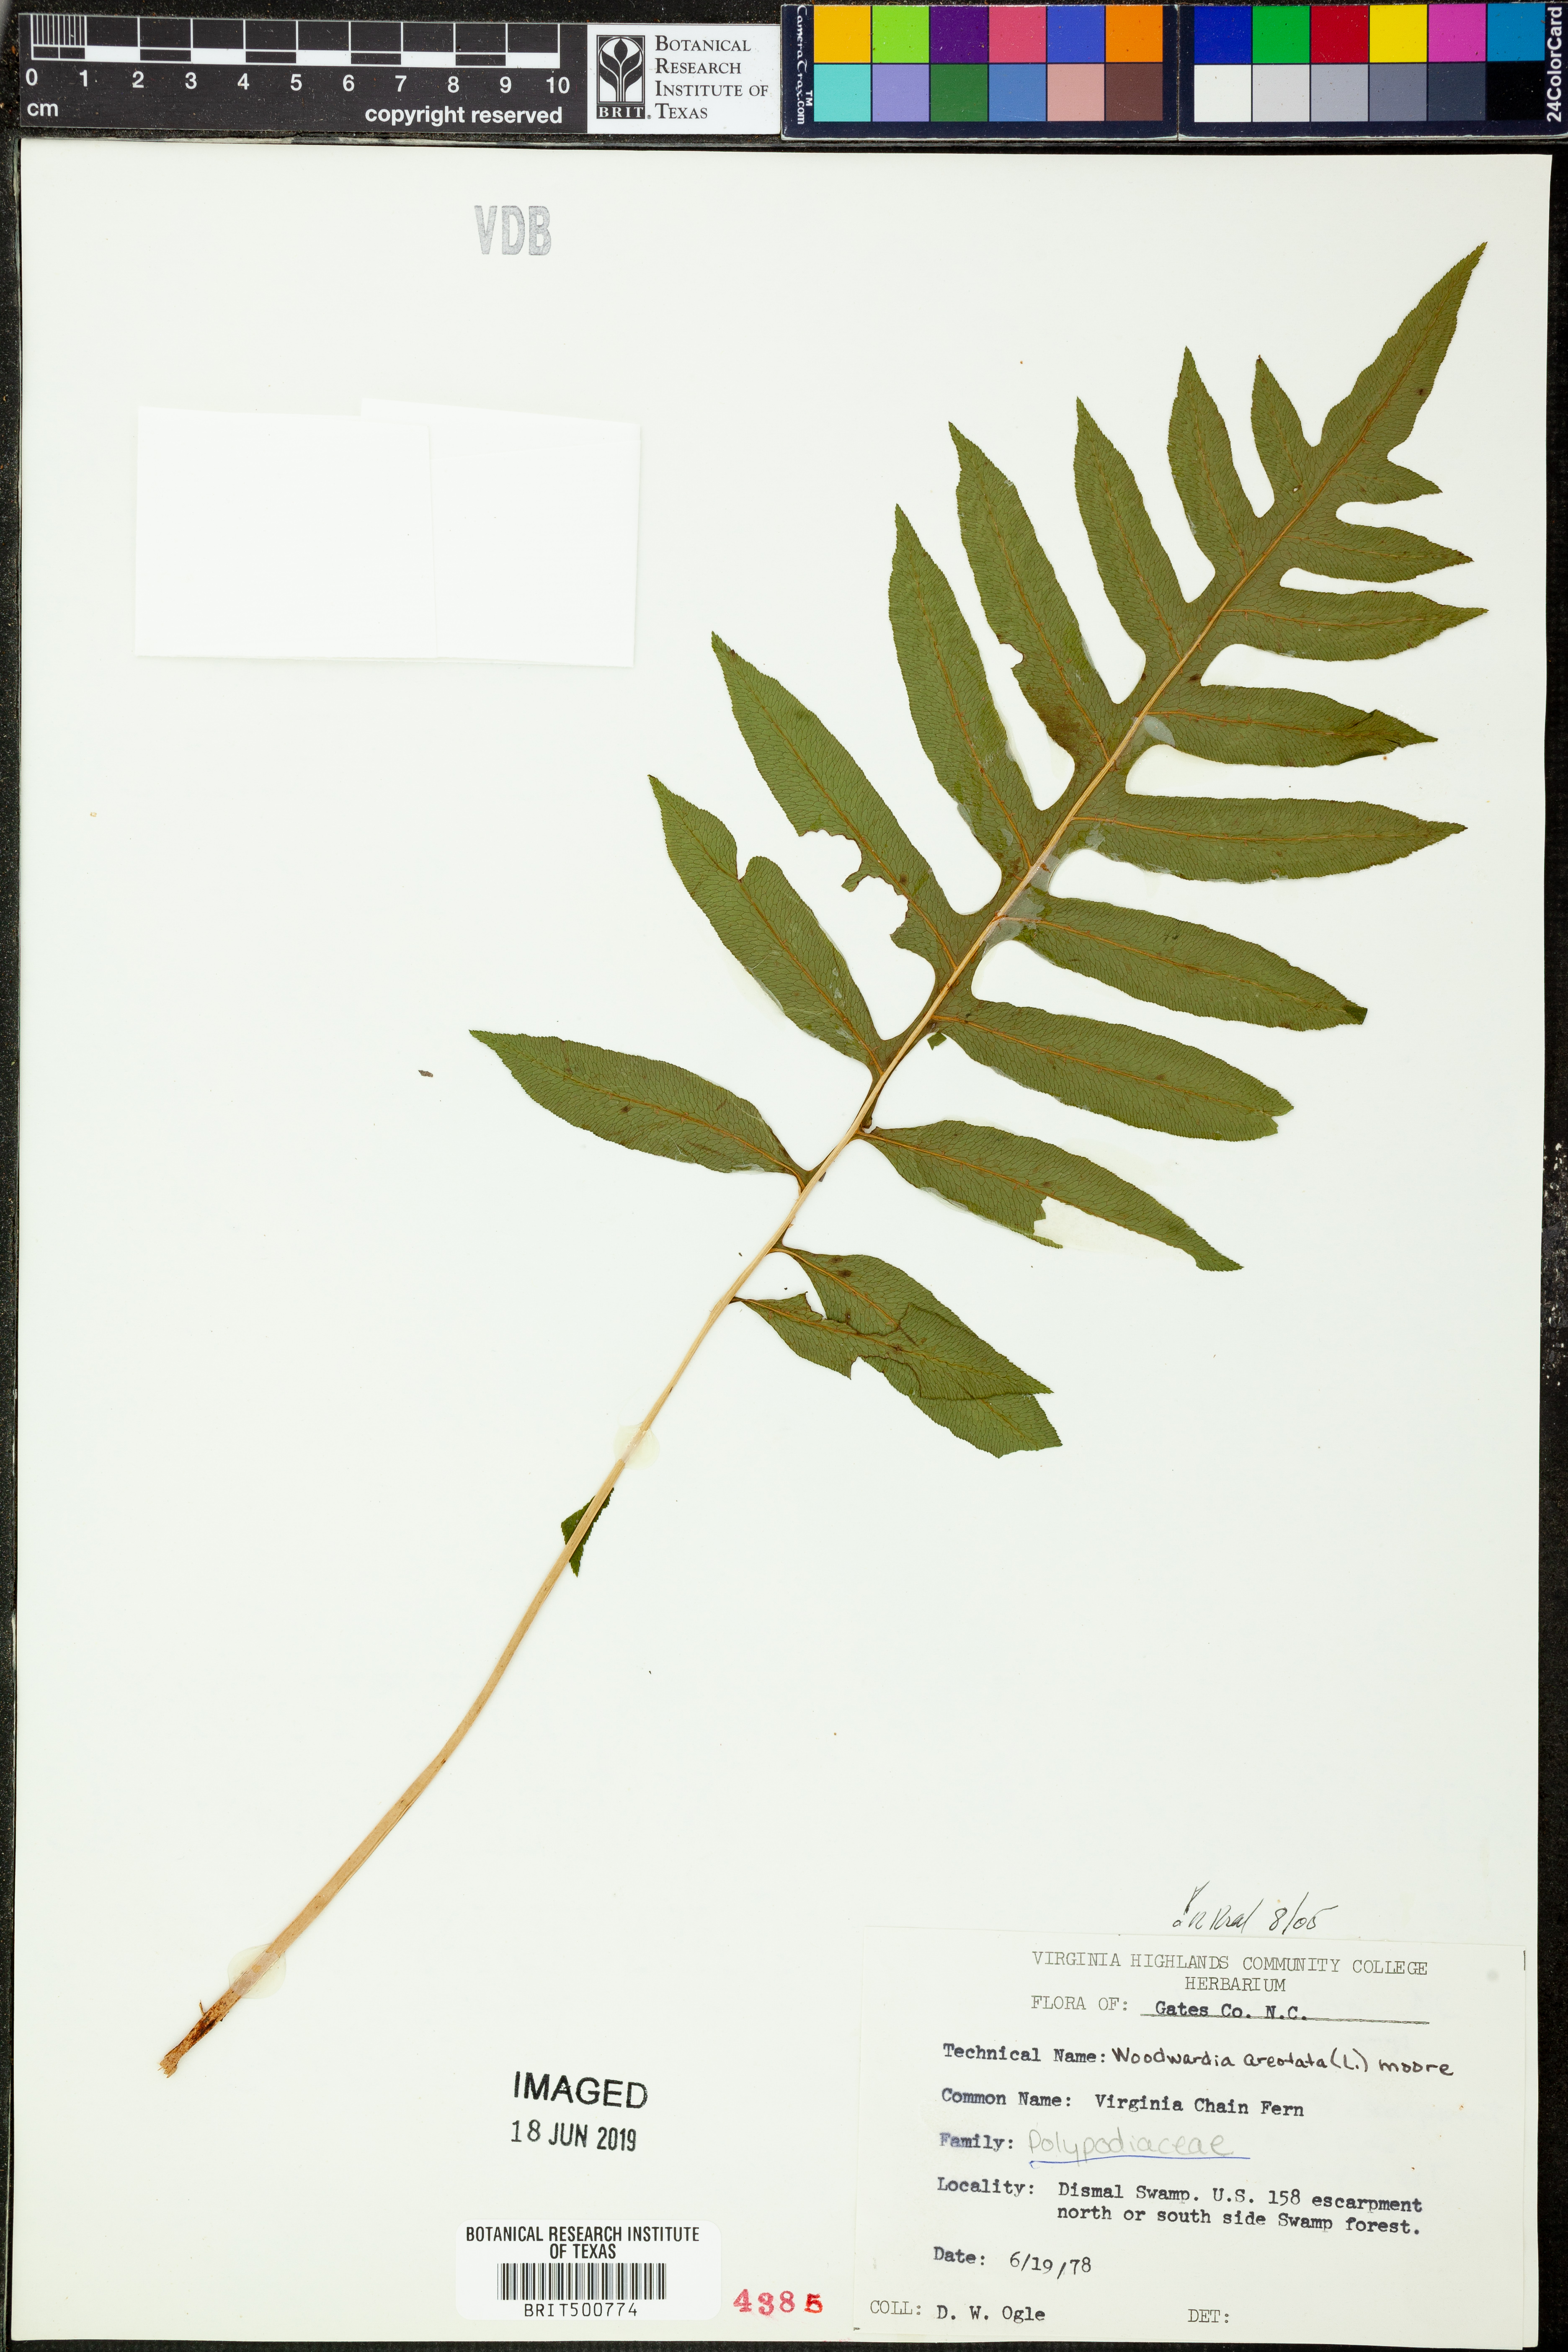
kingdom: Plantae
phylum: Tracheophyta
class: Polypodiopsida
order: Polypodiales
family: Blechnaceae
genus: Lorinseria
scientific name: Lorinseria areolata
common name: Dwarf chain fern
